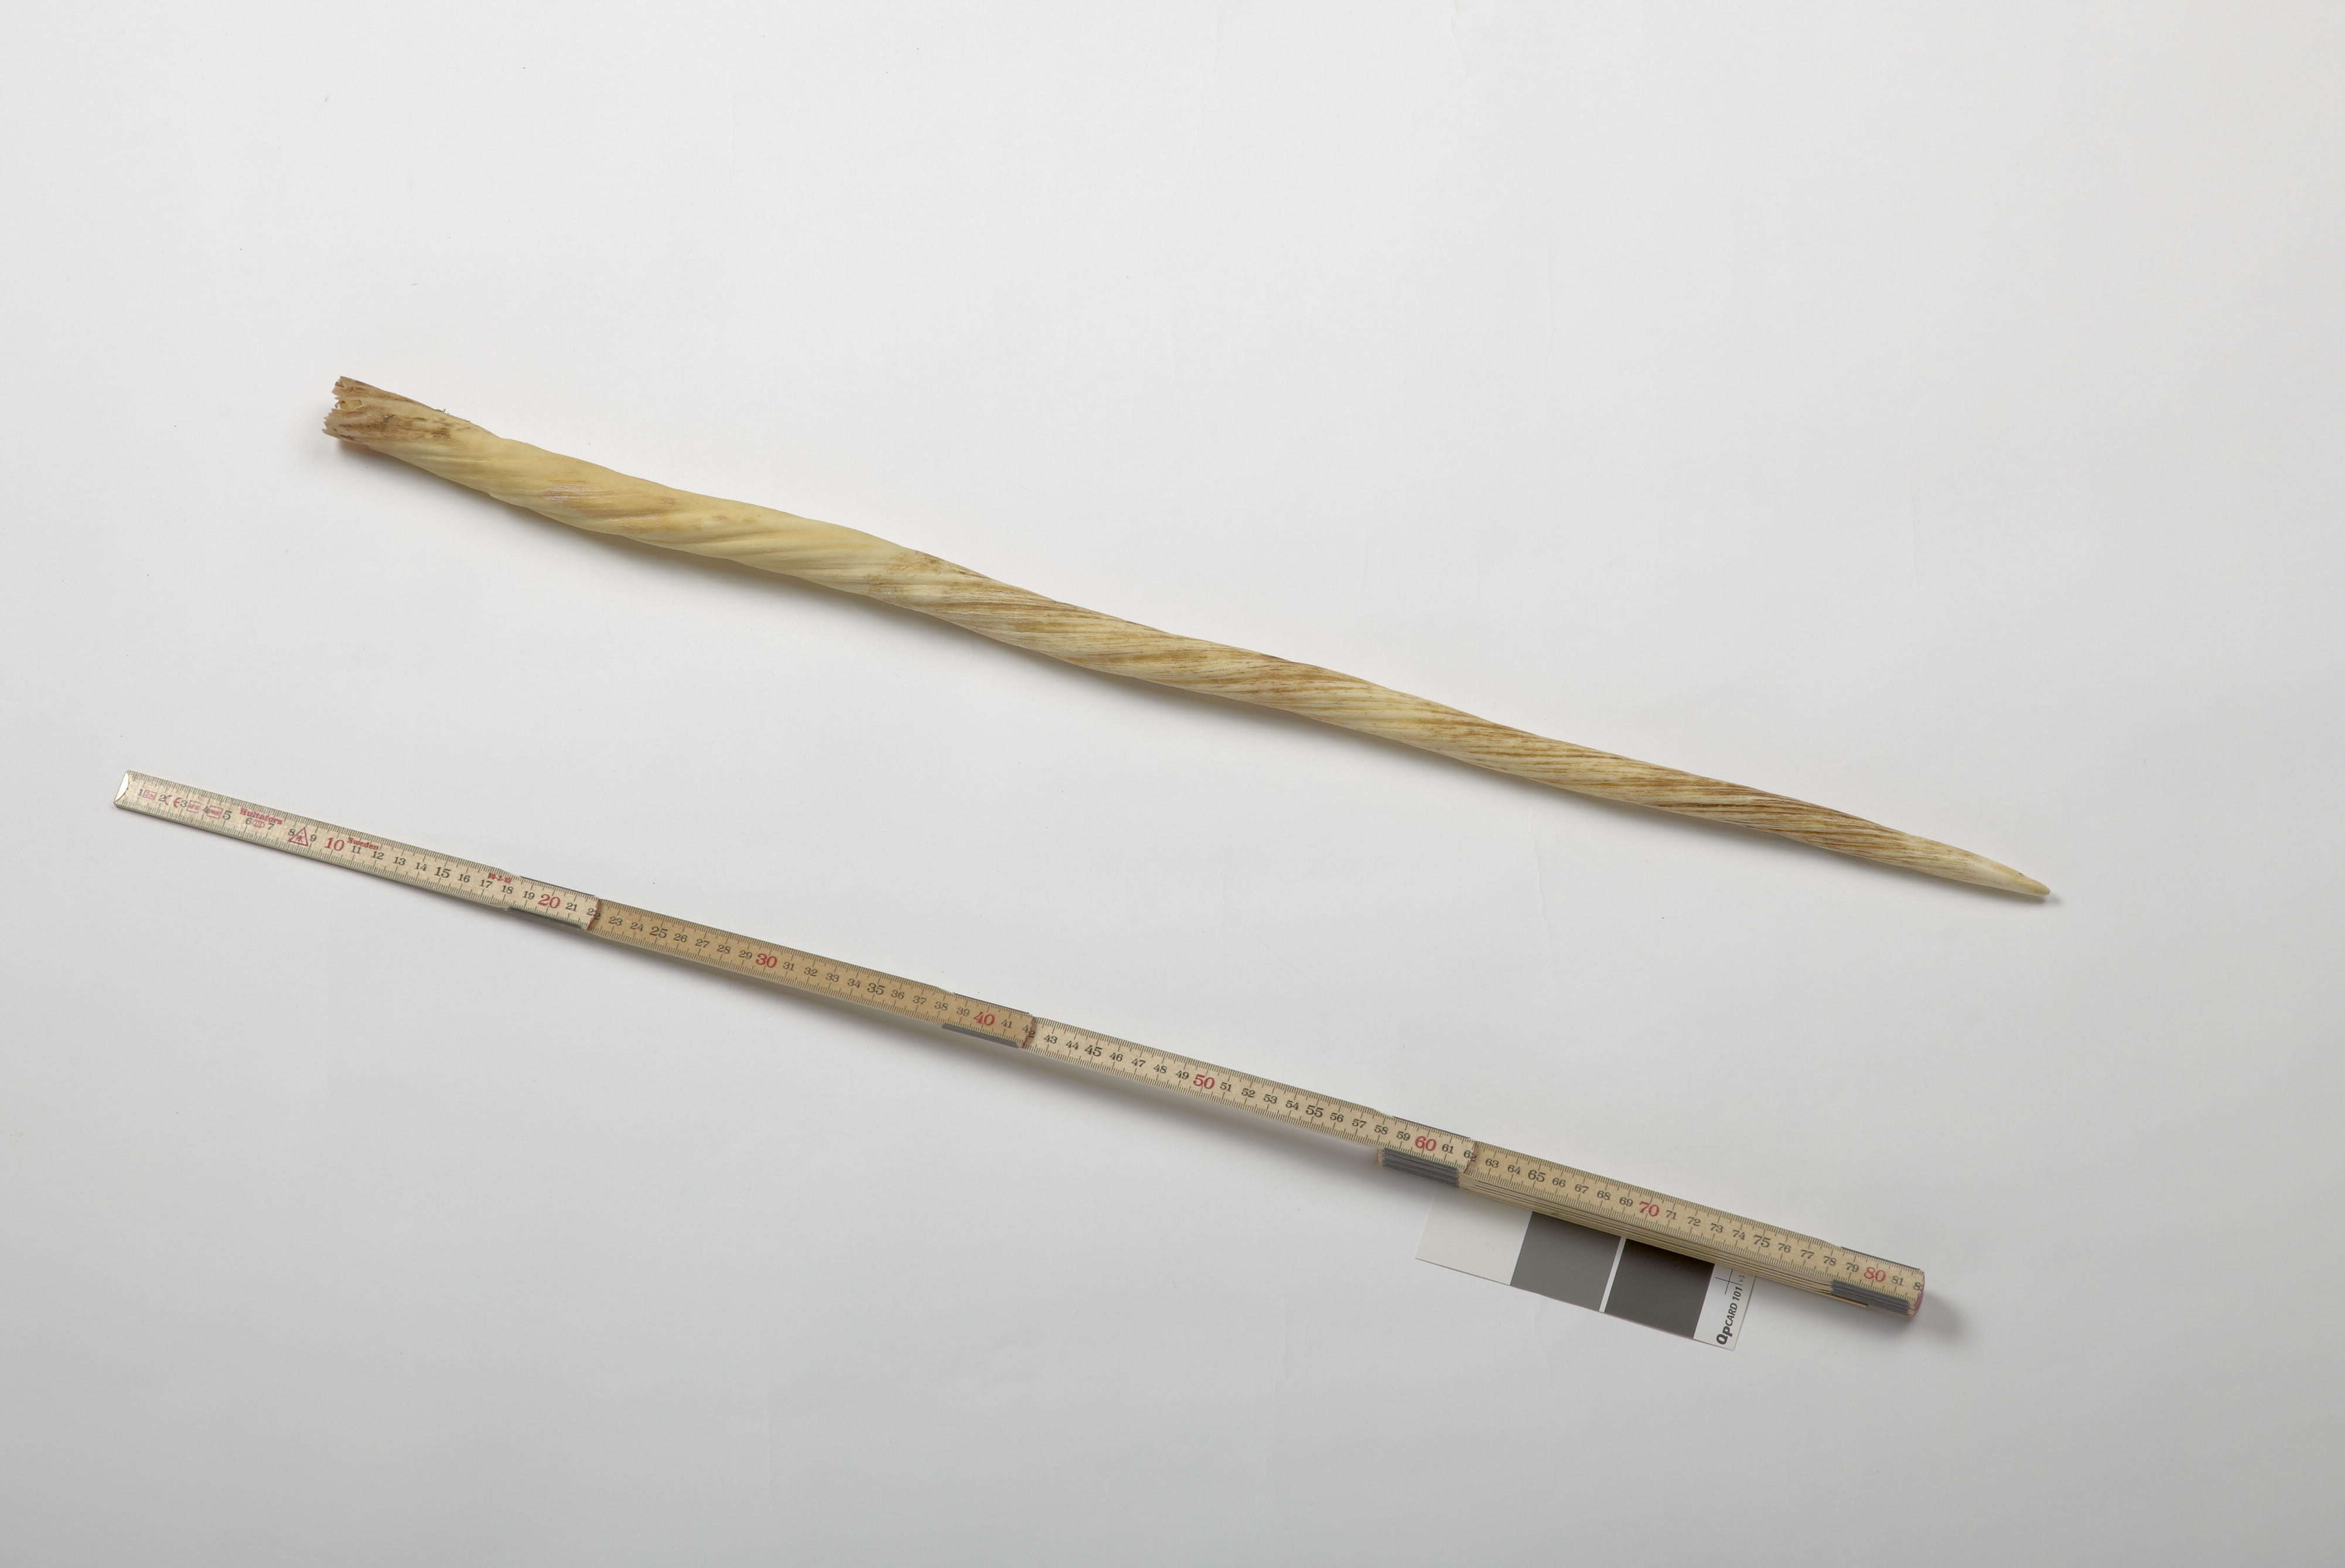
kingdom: Animalia
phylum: Chordata
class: Mammalia
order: Cetacea
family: Monodontidae
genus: Monodon
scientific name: Monodon monoceros
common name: Narwhal
